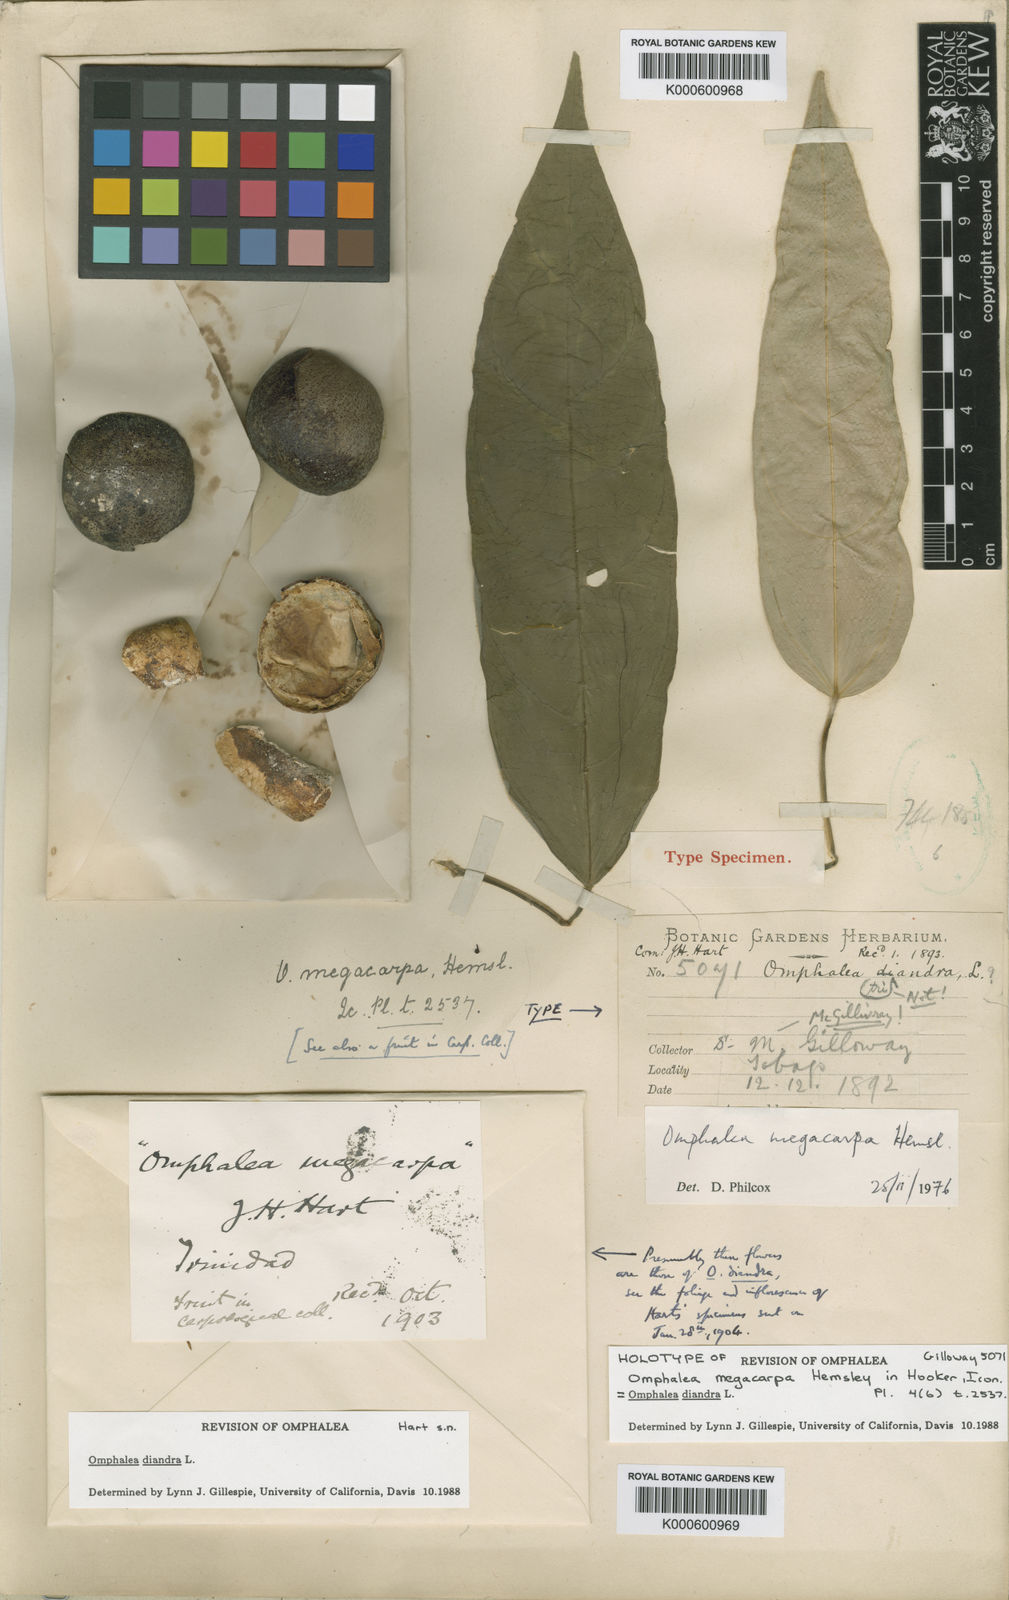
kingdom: Plantae
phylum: Tracheophyta
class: Magnoliopsida
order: Malpighiales
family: Euphorbiaceae
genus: Omphalea
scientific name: Omphalea diandra
